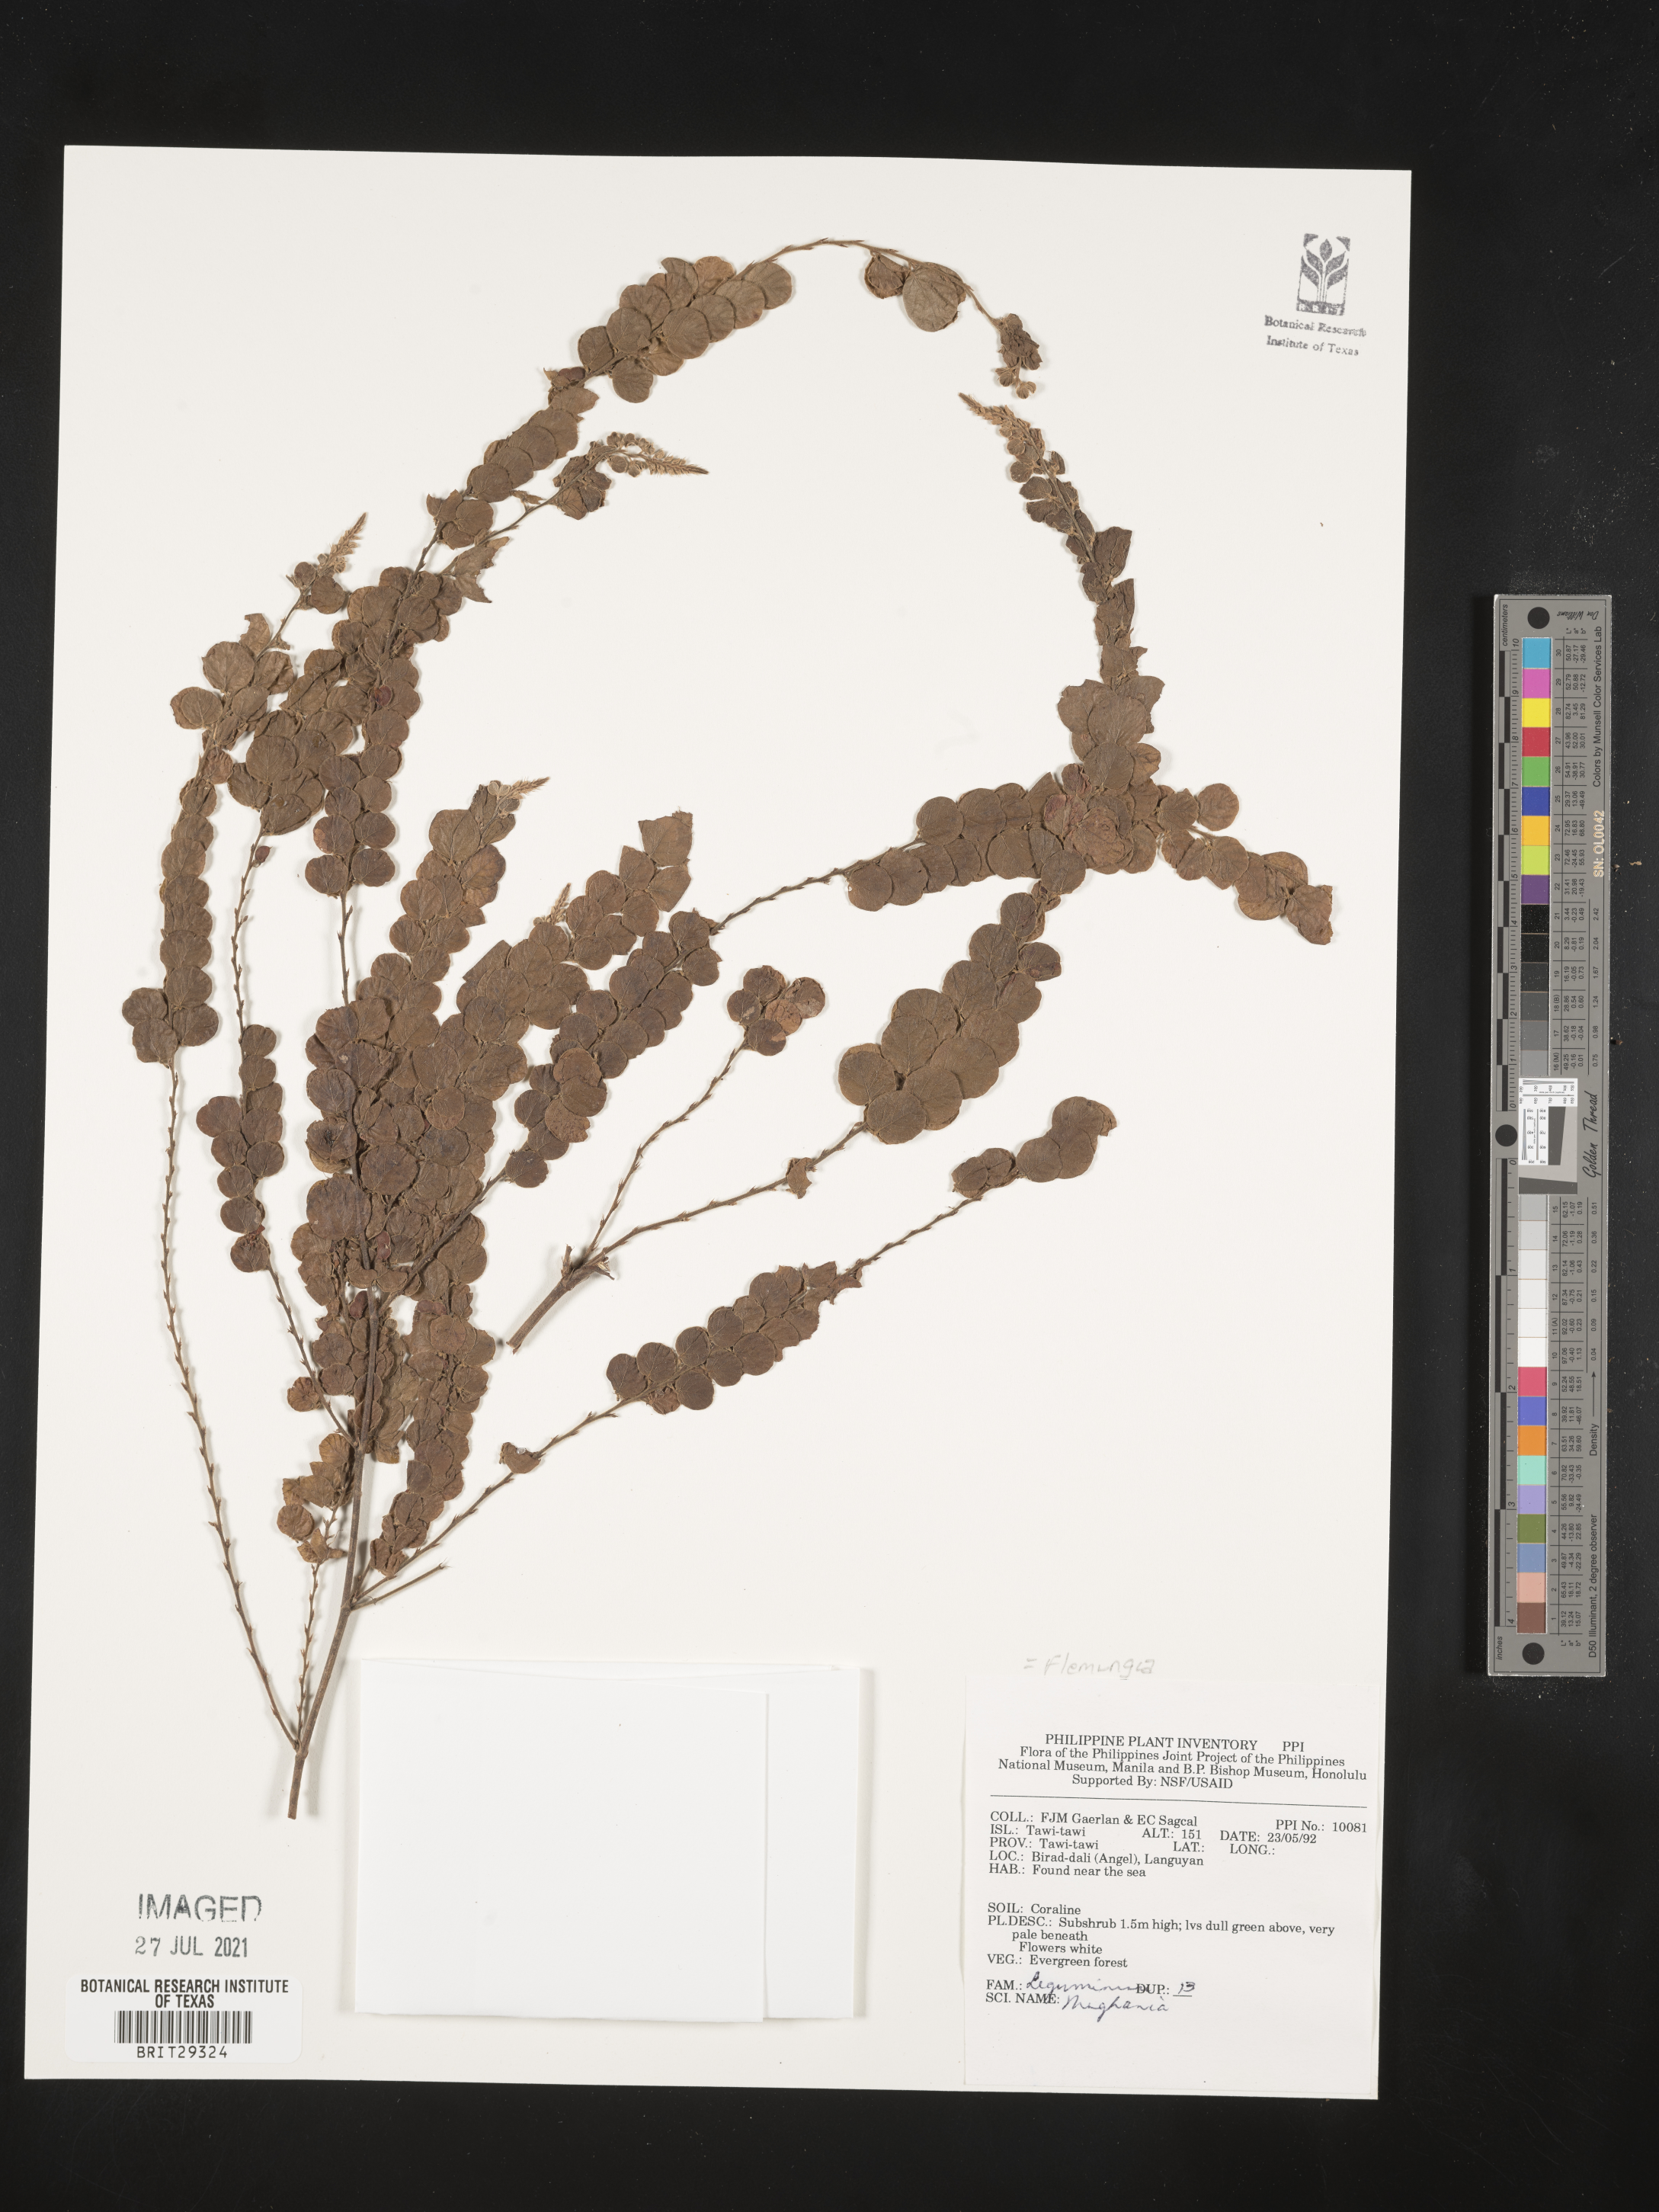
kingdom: Plantae
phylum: Tracheophyta
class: Magnoliopsida
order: Fabales
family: Fabaceae
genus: Flemingia
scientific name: Flemingia
